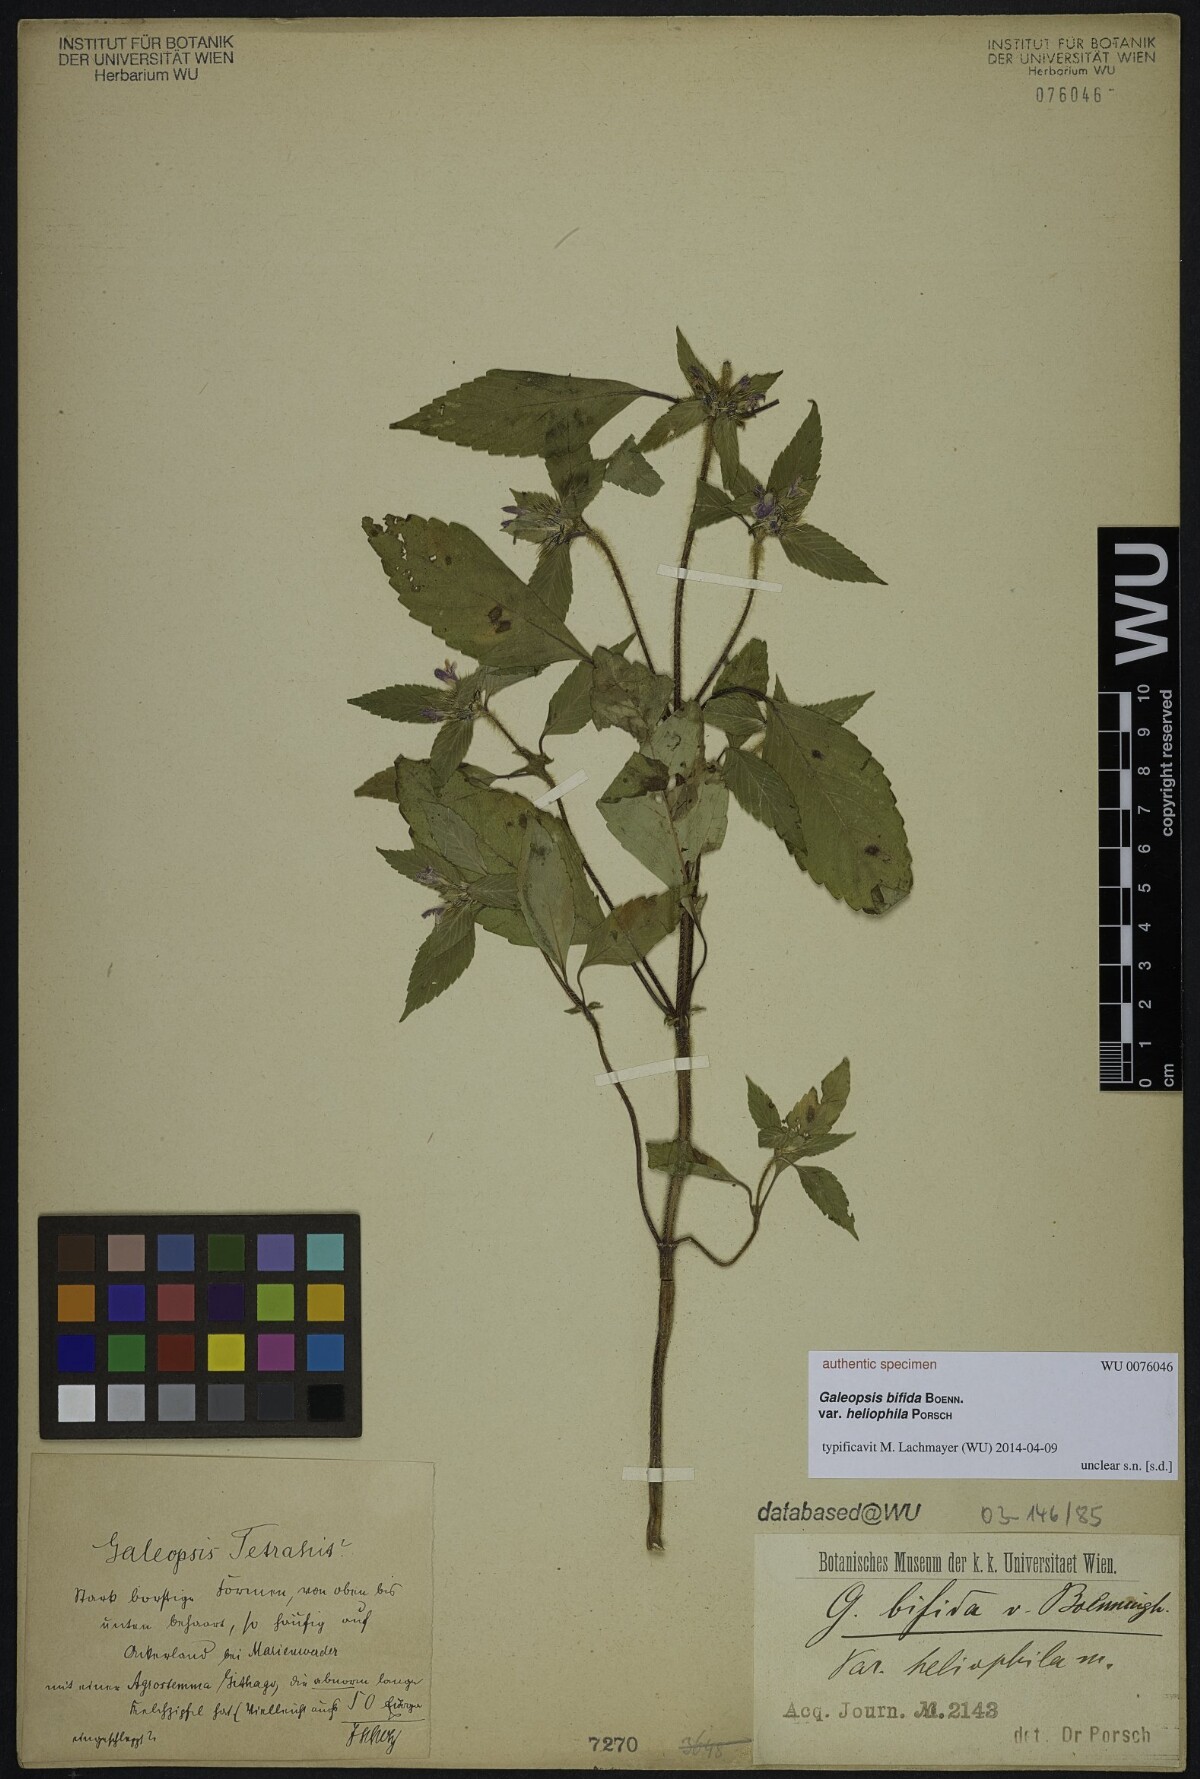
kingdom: Plantae
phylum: Tracheophyta
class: Magnoliopsida
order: Lamiales
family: Lamiaceae
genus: Galeopsis
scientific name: Galeopsis bifida
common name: Bifid hemp-nettle
